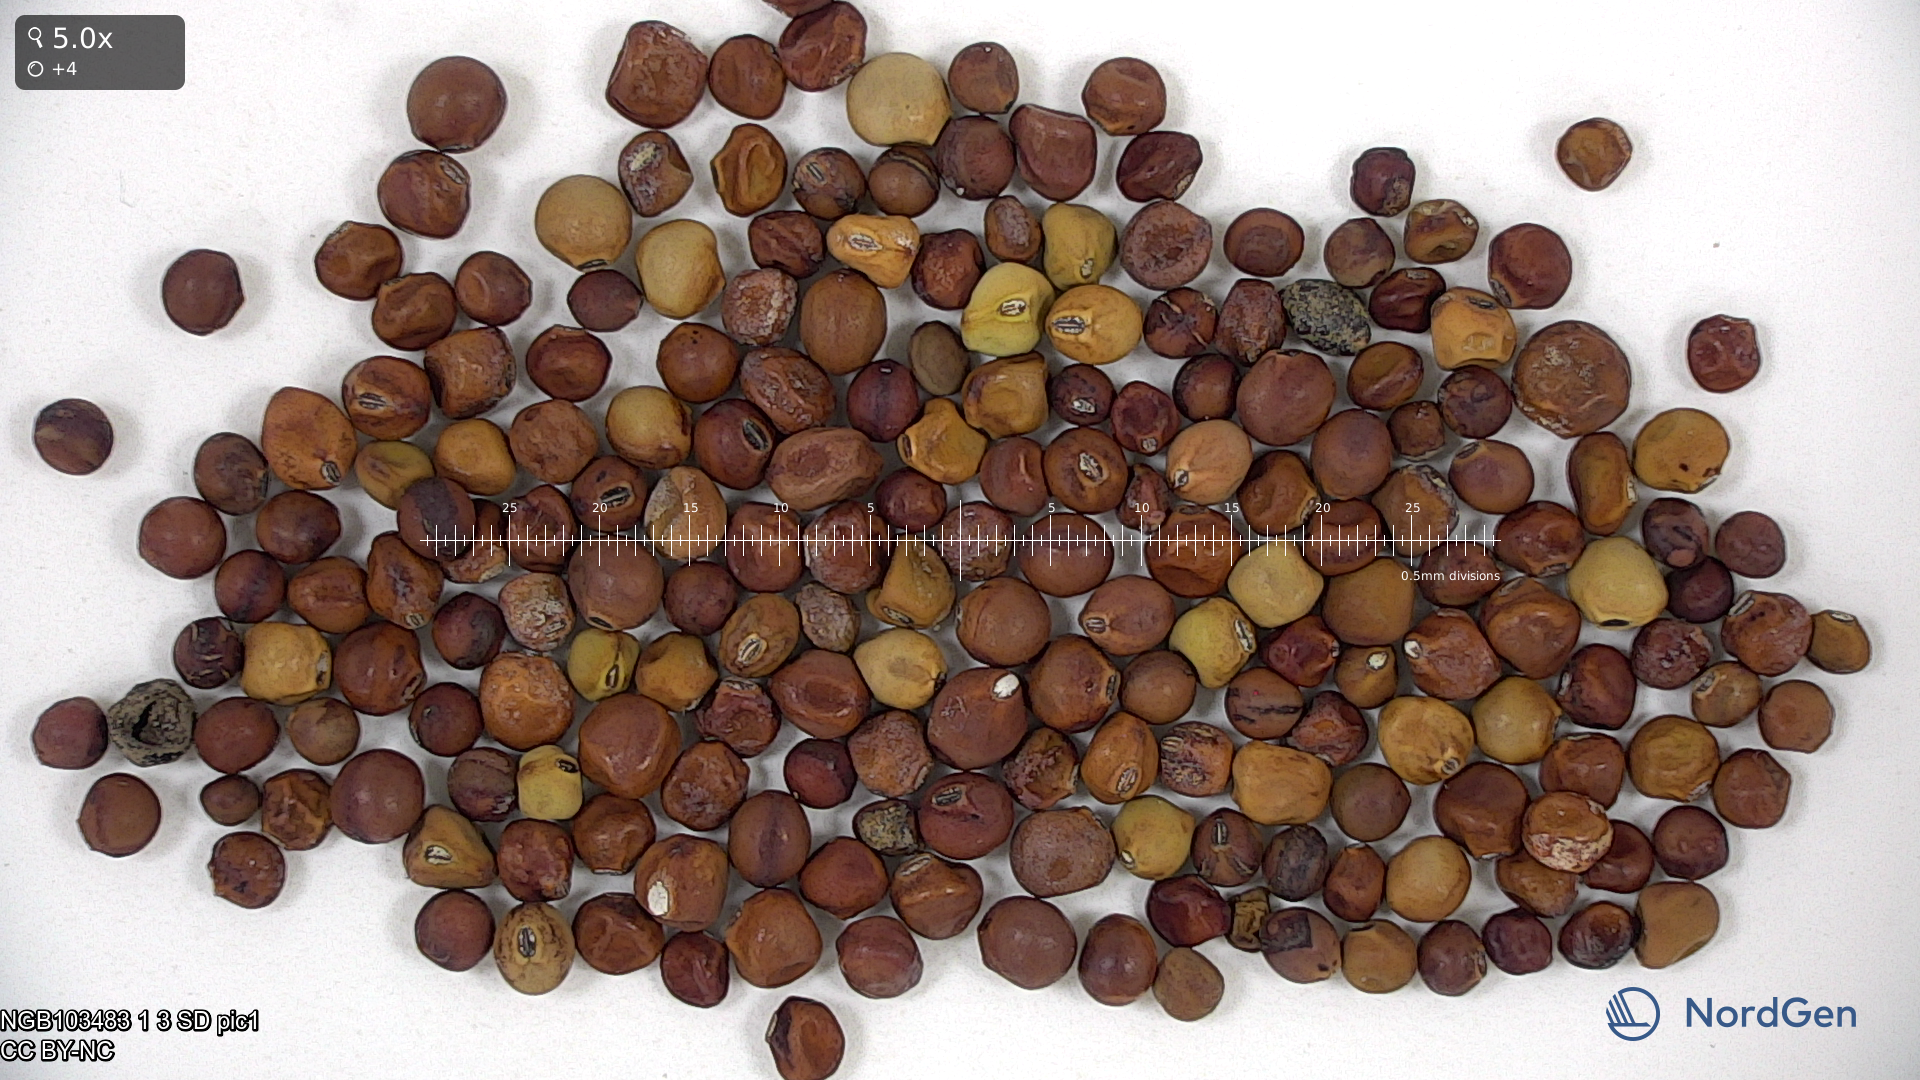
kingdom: Plantae
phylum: Tracheophyta
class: Magnoliopsida
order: Fabales
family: Fabaceae
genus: Lathyrus
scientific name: Lathyrus oleraceus
